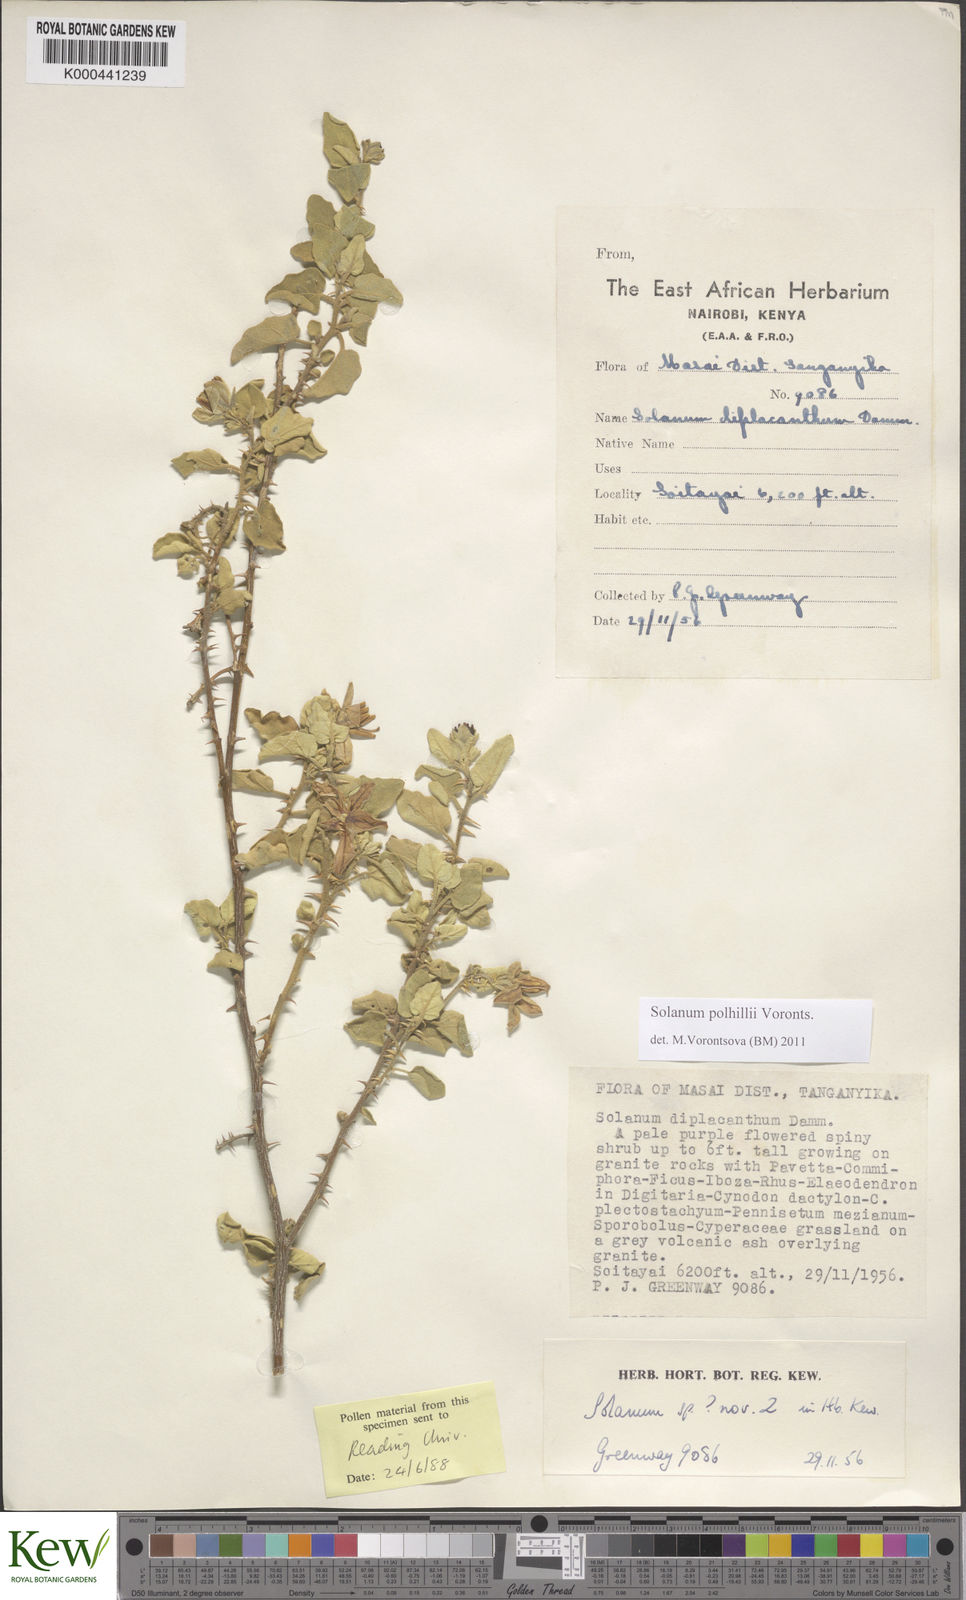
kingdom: Plantae
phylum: Tracheophyta
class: Magnoliopsida
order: Solanales
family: Solanaceae
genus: Solanum
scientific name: Solanum polhillii
